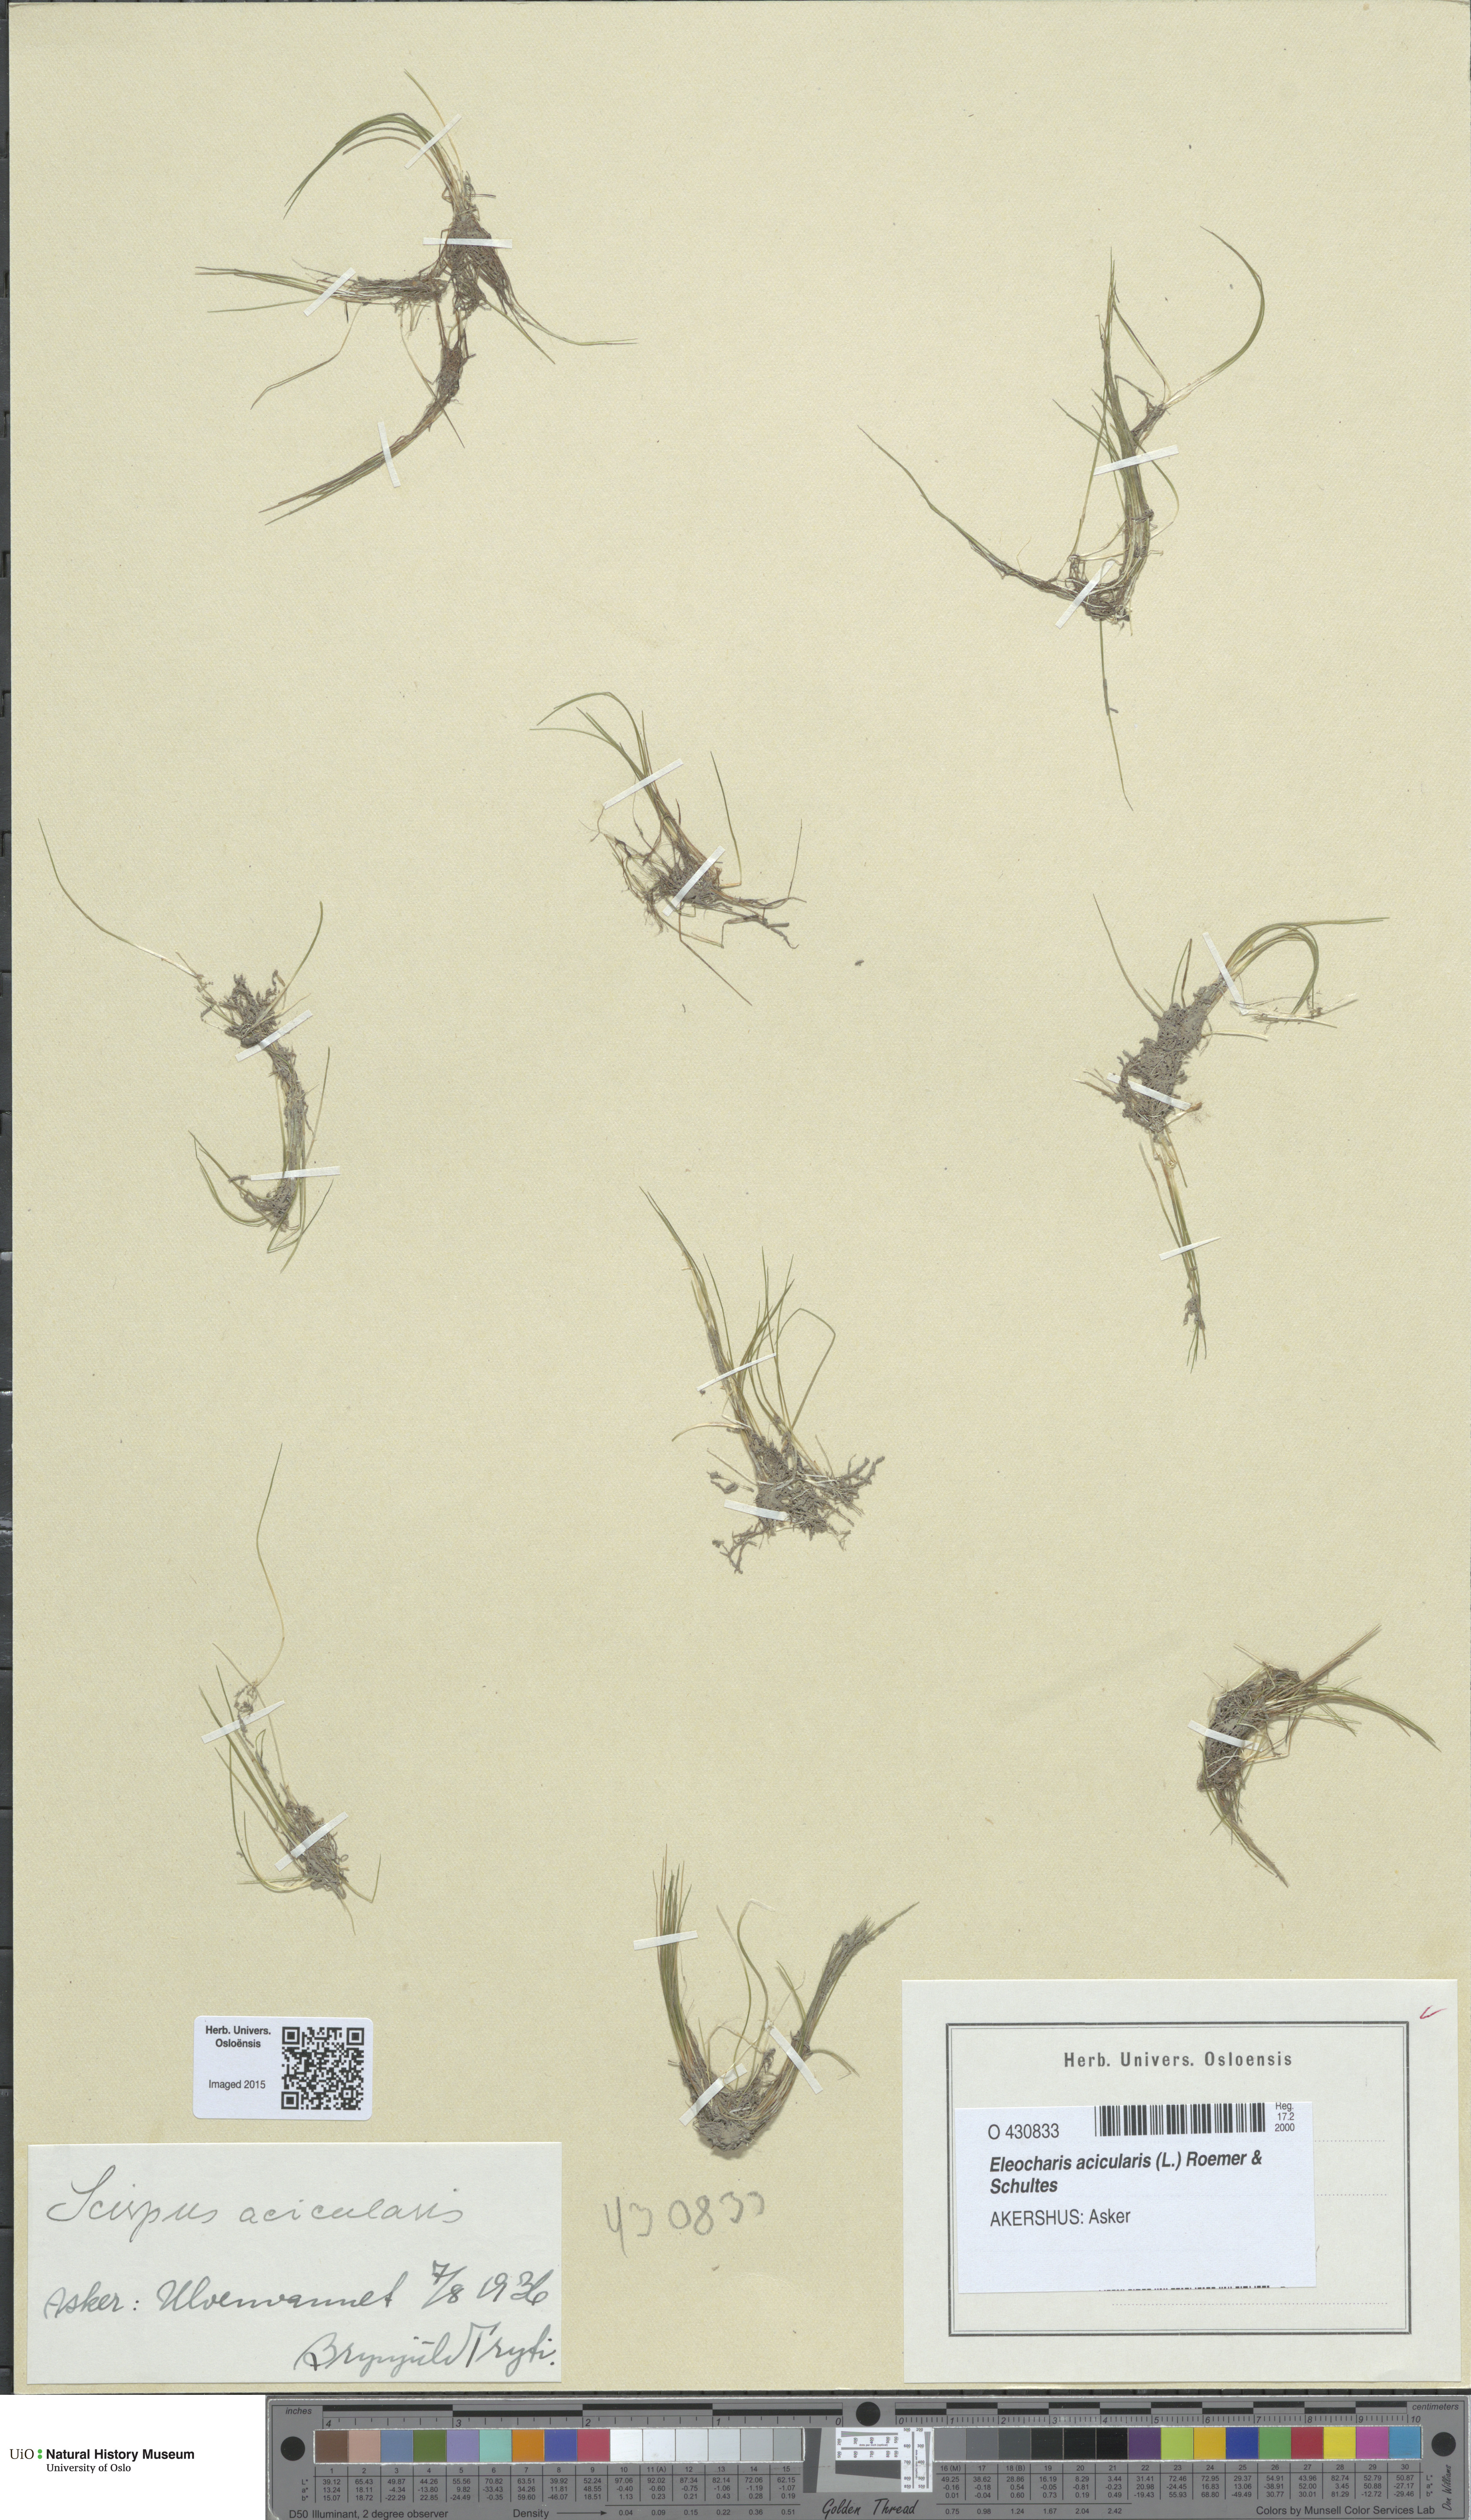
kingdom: Plantae
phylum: Tracheophyta
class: Liliopsida
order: Poales
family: Cyperaceae
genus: Eleocharis
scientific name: Eleocharis acicularis
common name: Needle spike-rush
